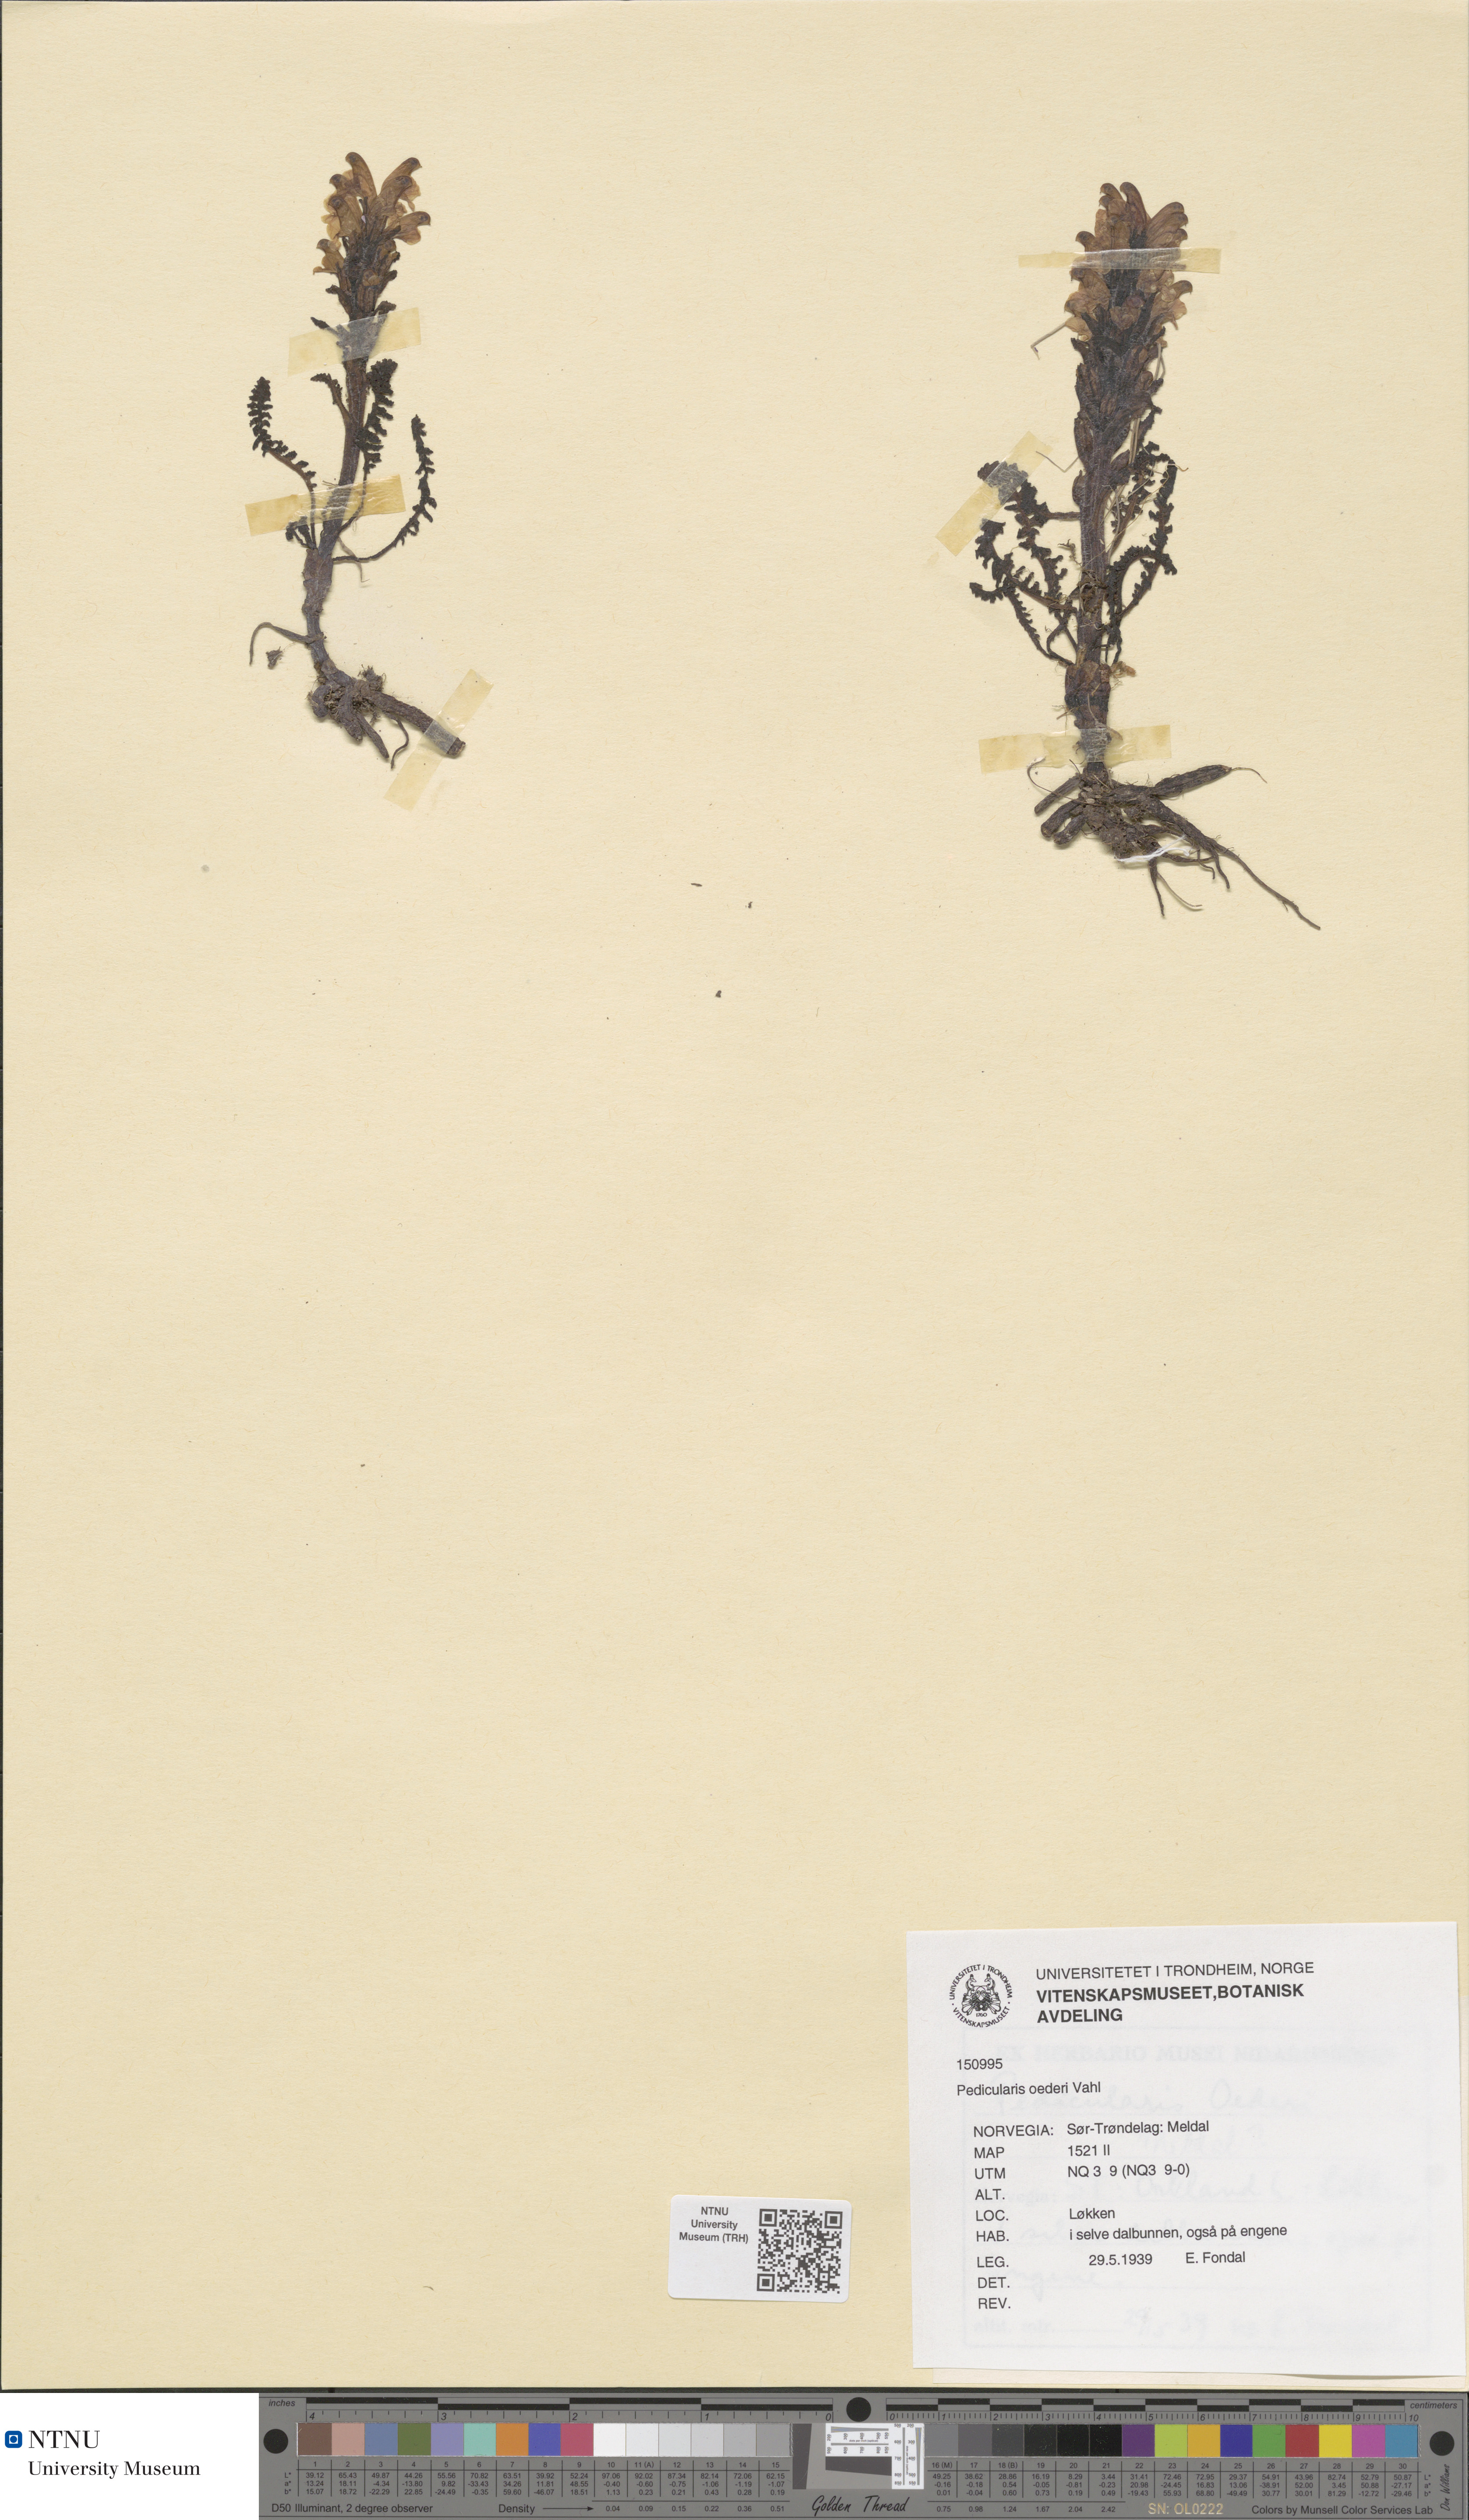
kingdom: Plantae
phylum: Tracheophyta
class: Magnoliopsida
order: Lamiales
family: Orobanchaceae
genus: Pedicularis
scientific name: Pedicularis oederi
